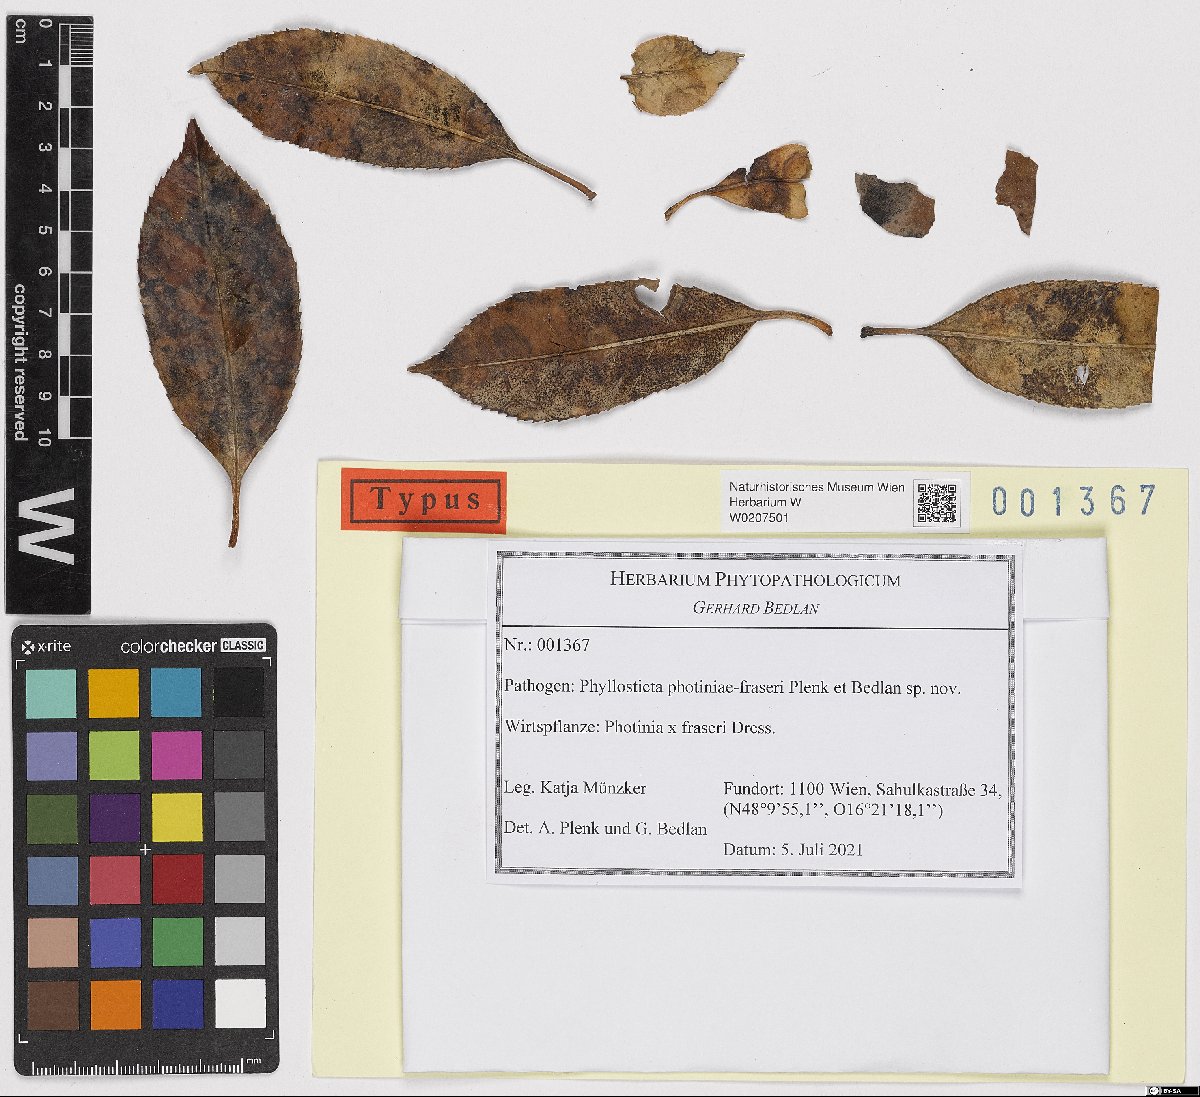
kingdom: Fungi
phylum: Ascomycota
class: Dothideomycetes
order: Botryosphaeriales
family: Phyllostictaceae
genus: Phyllosticta
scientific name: Phyllosticta photiniae-fraseri
